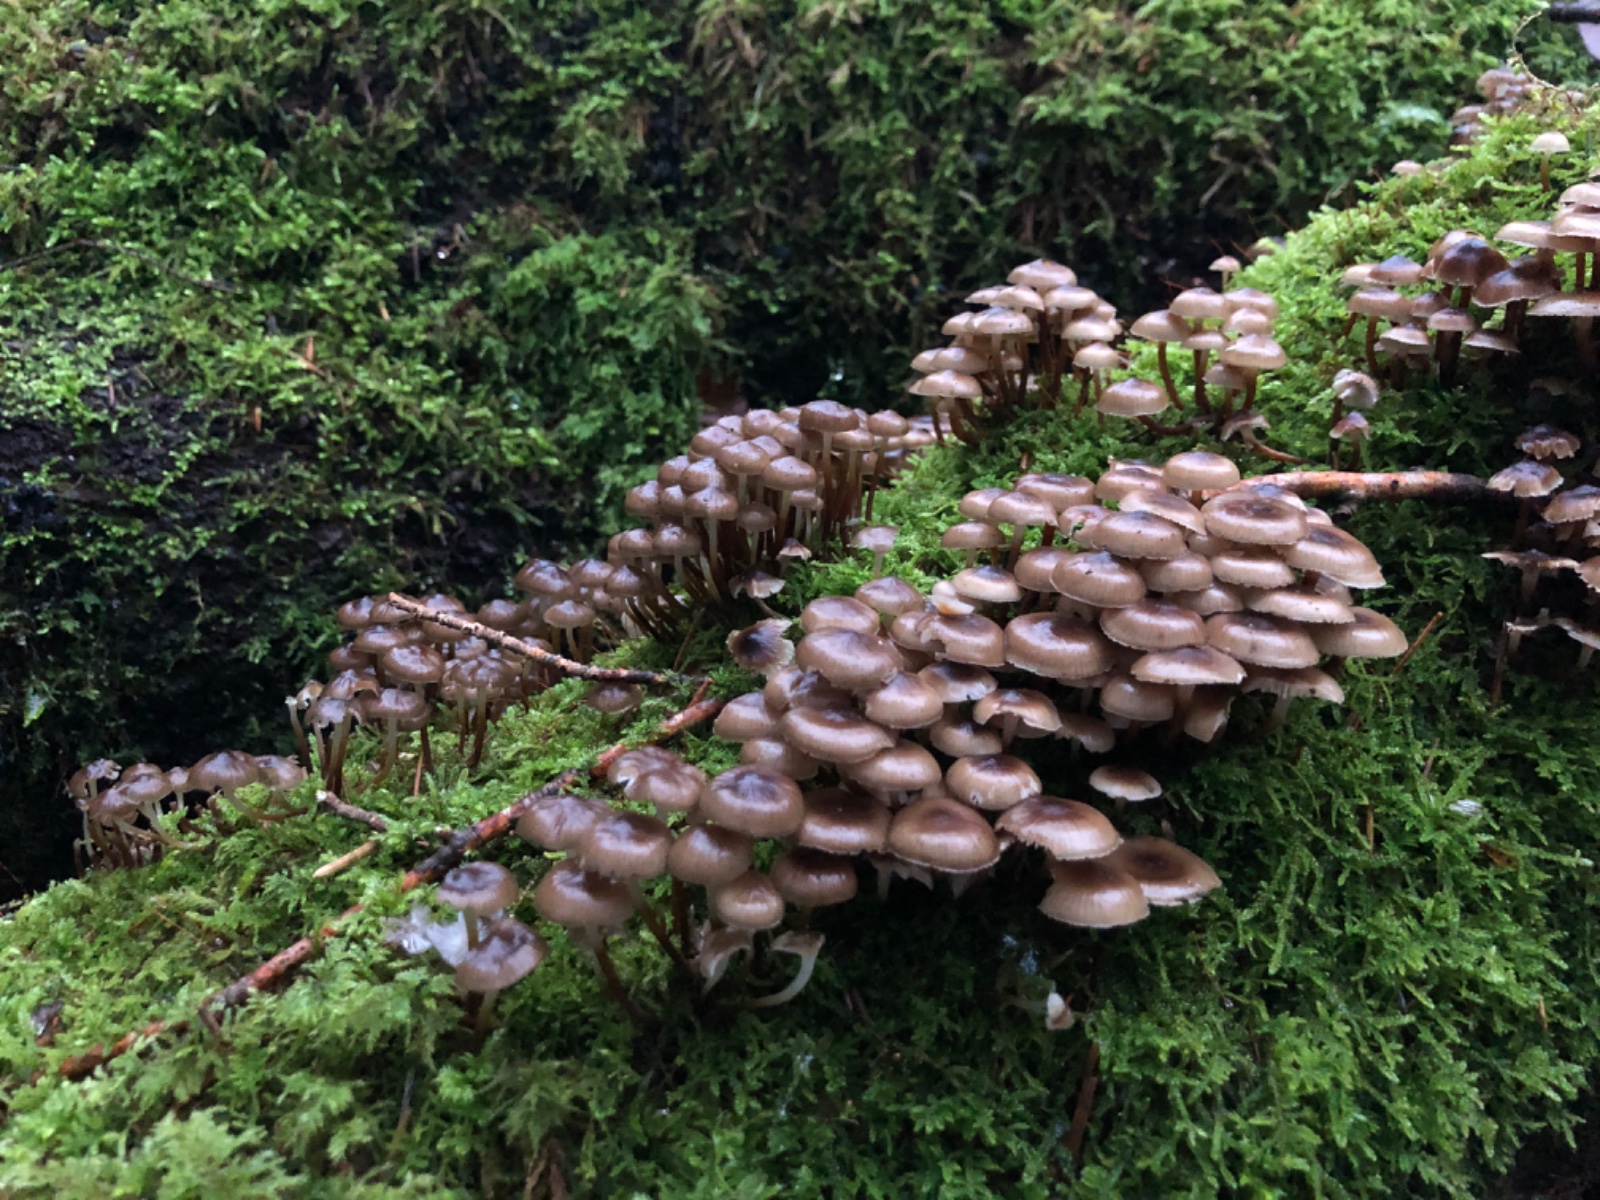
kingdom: Fungi
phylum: Basidiomycota
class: Agaricomycetes
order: Agaricales
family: Mycenaceae
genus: Mycena
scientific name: Mycena tintinnabulum
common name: vinter-huesvamp
